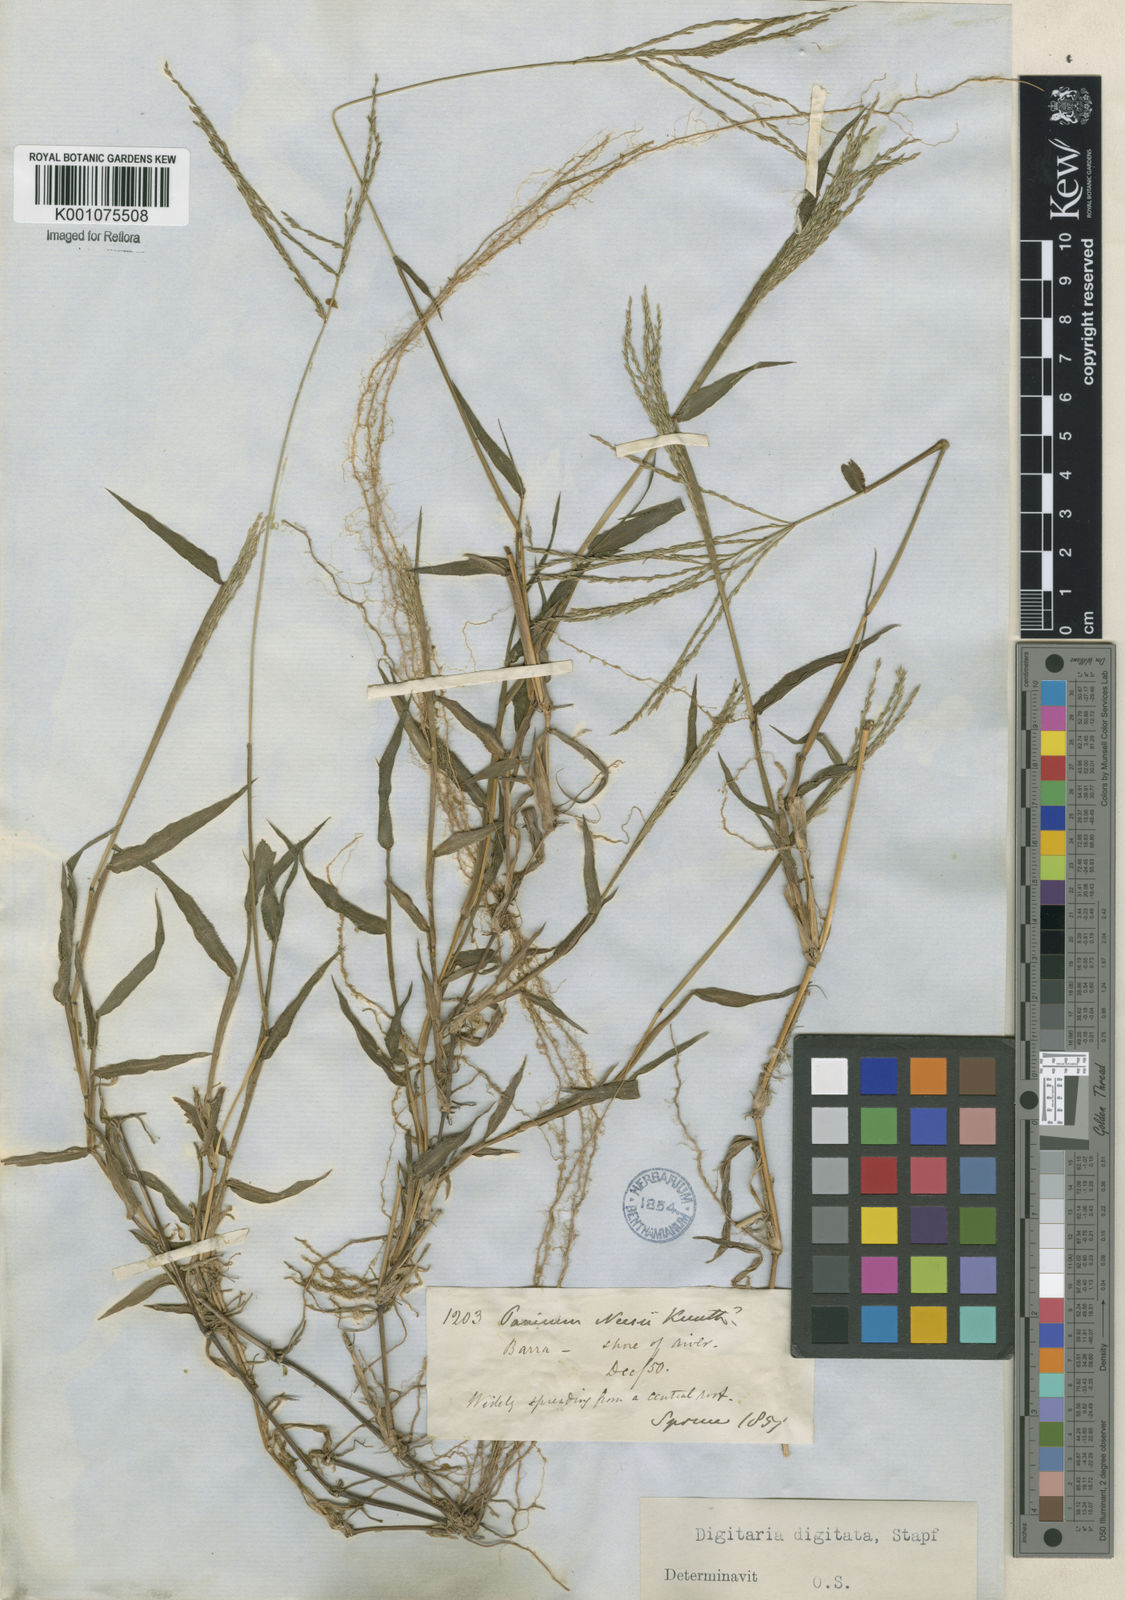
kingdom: Plantae
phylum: Tracheophyta
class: Liliopsida
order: Poales
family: Poaceae
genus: Digitaria
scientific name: Digitaria horizontalis
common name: Jamaican crabgrass
